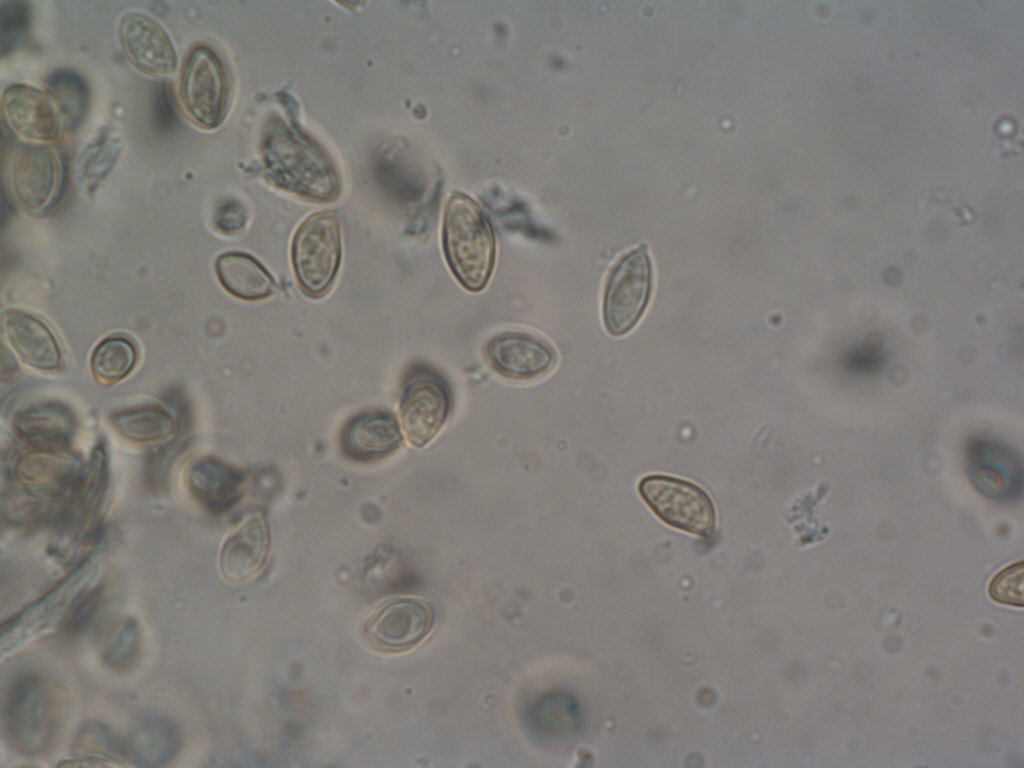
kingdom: Fungi
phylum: Basidiomycota
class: Agaricomycetes
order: Agaricales
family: Tubariaceae
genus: Flammulaster
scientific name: Flammulaster granulosus
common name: gulbrun grynskælhat
